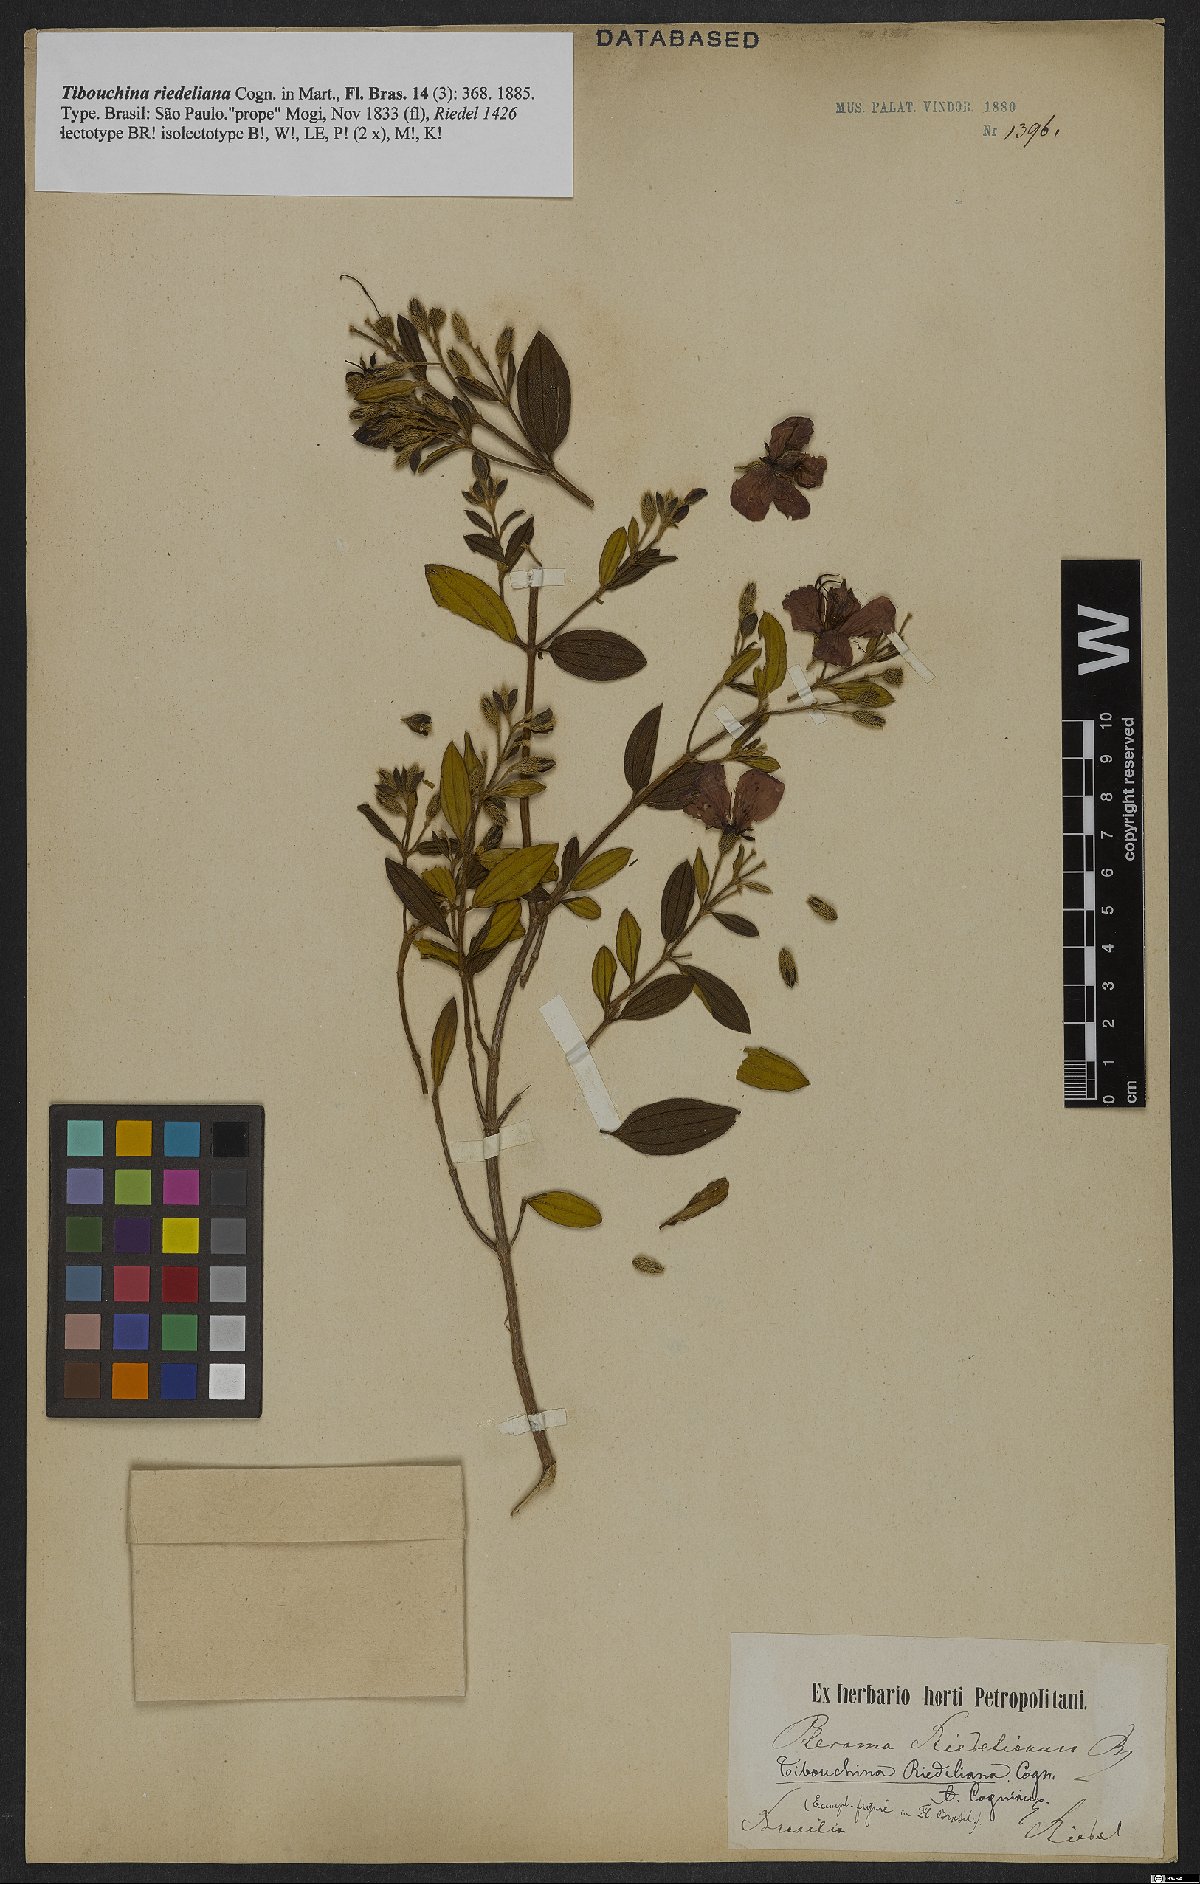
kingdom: Plantae
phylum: Tracheophyta
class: Magnoliopsida
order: Myrtales
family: Melastomataceae
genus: Pleroma
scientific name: Pleroma riedelianum
